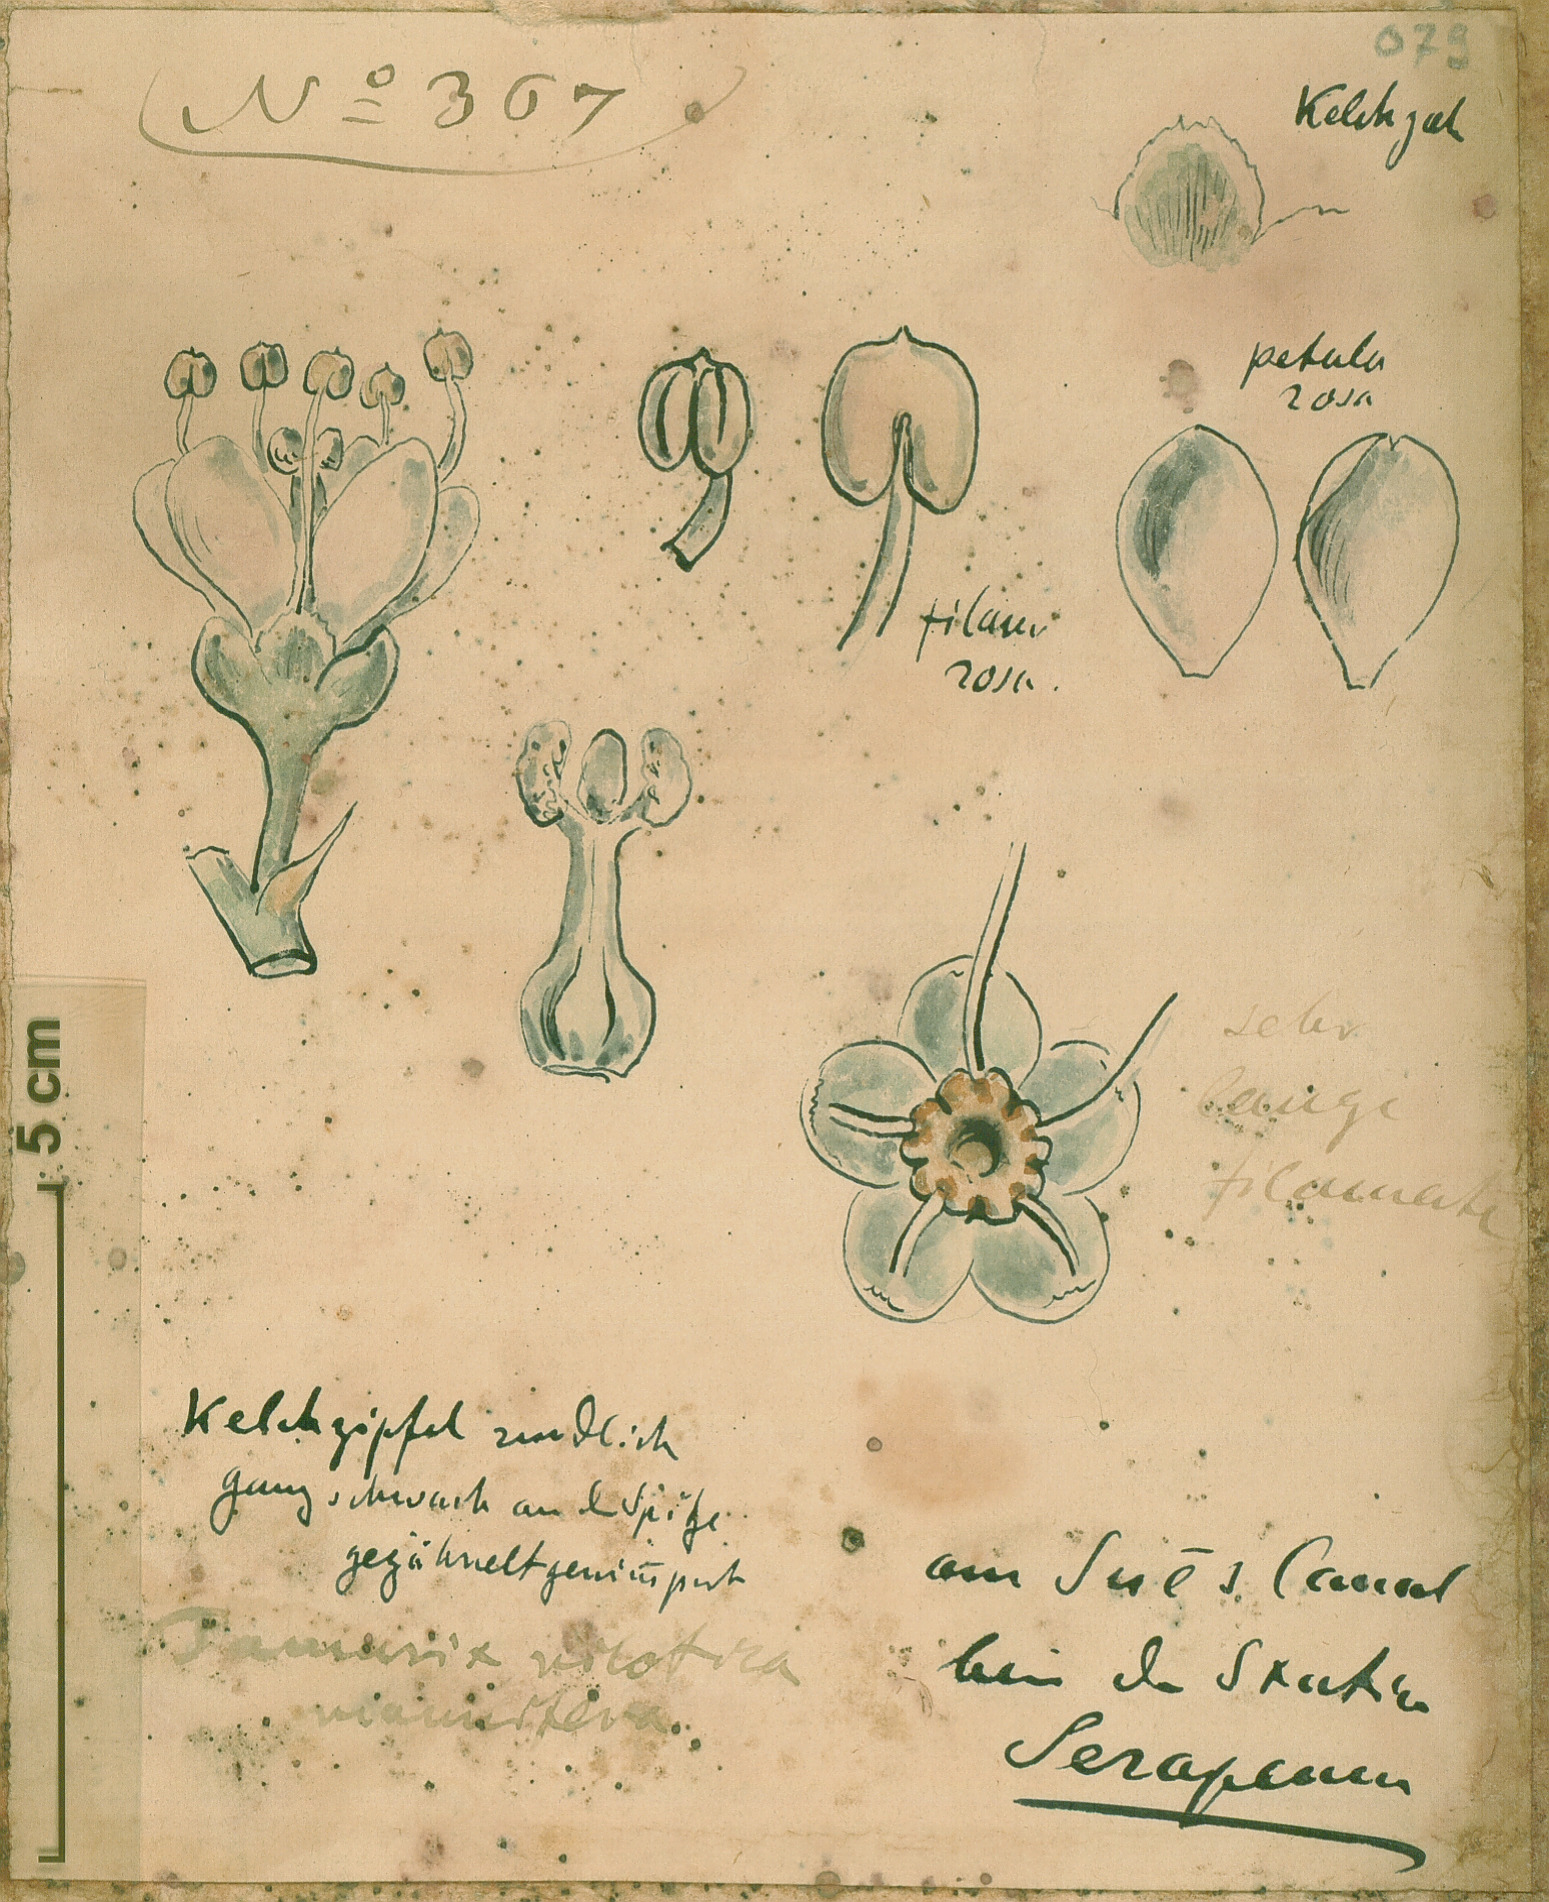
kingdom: Plantae
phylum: Tracheophyta
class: Magnoliopsida
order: Caryophyllales
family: Tamaricaceae
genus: Tamarix
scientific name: Tamarix nilotica
